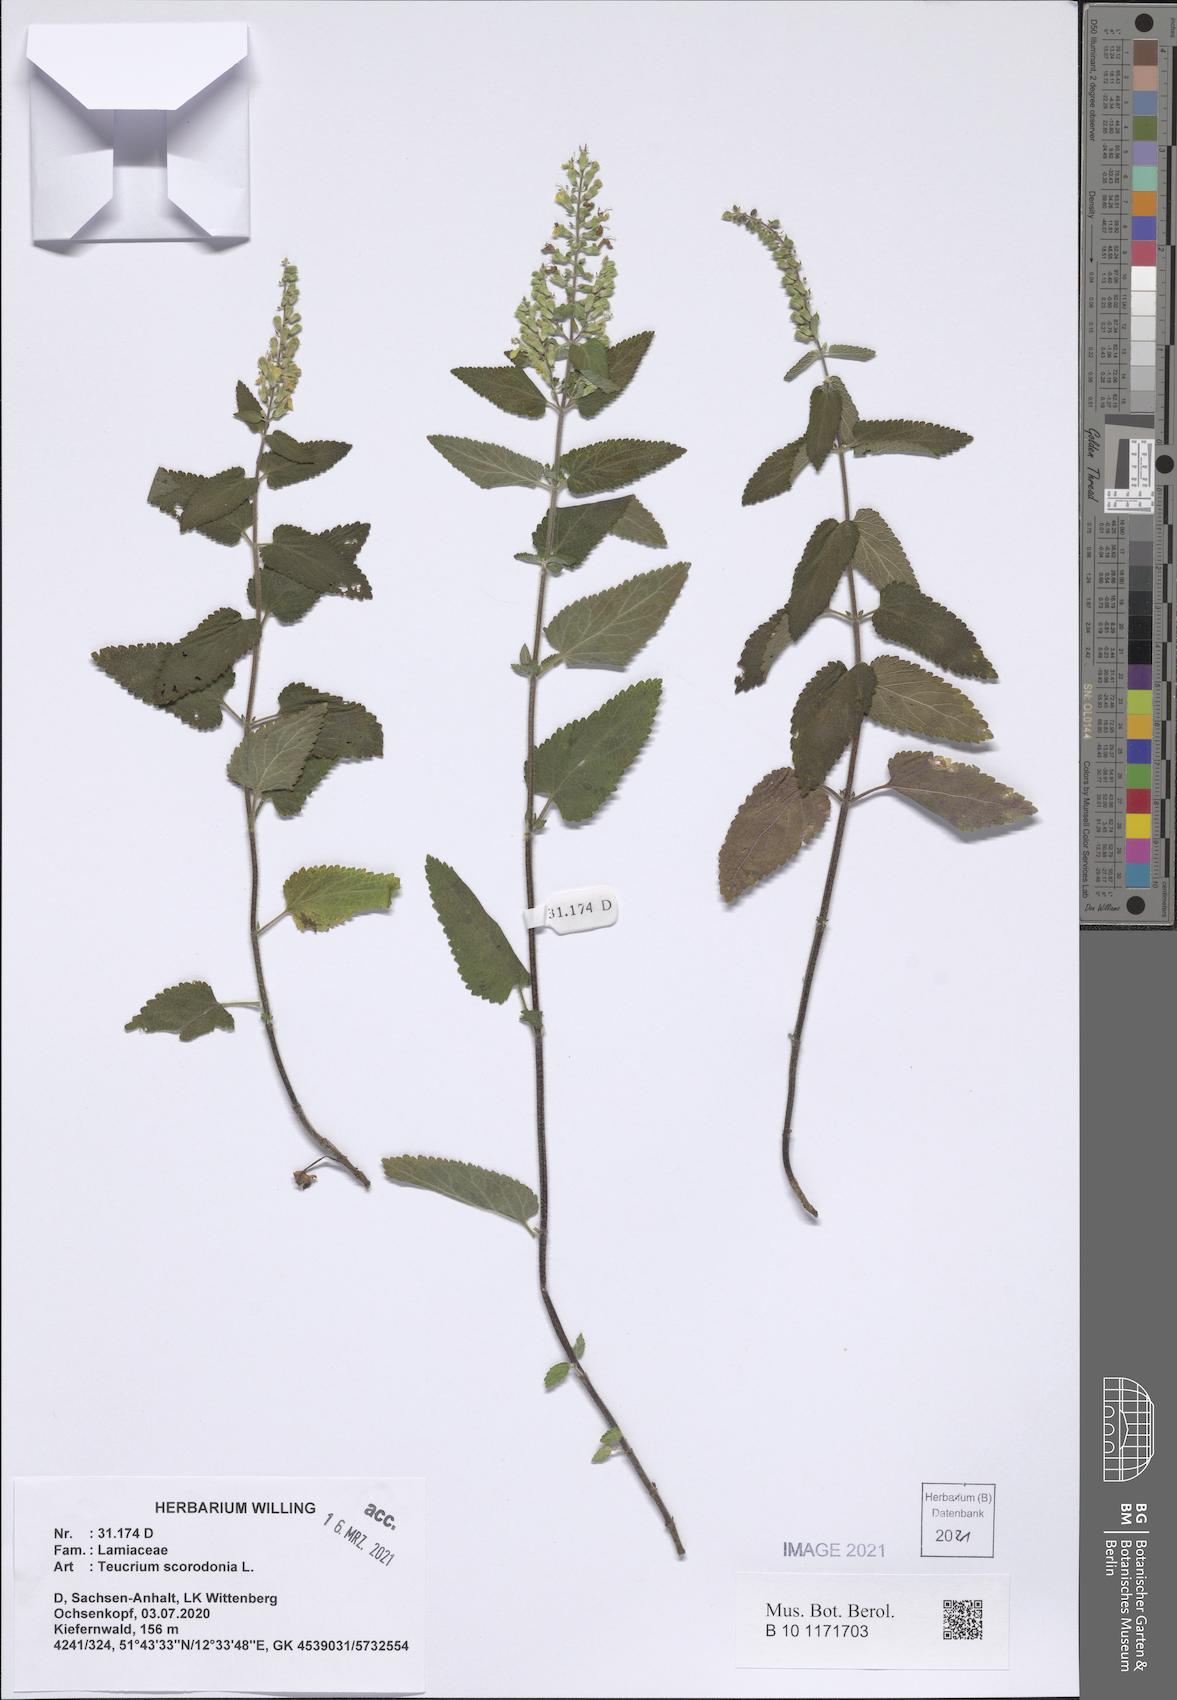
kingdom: Plantae
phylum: Tracheophyta
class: Magnoliopsida
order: Lamiales
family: Lamiaceae
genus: Teucrium
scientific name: Teucrium scorodonia
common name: Woodland germander
